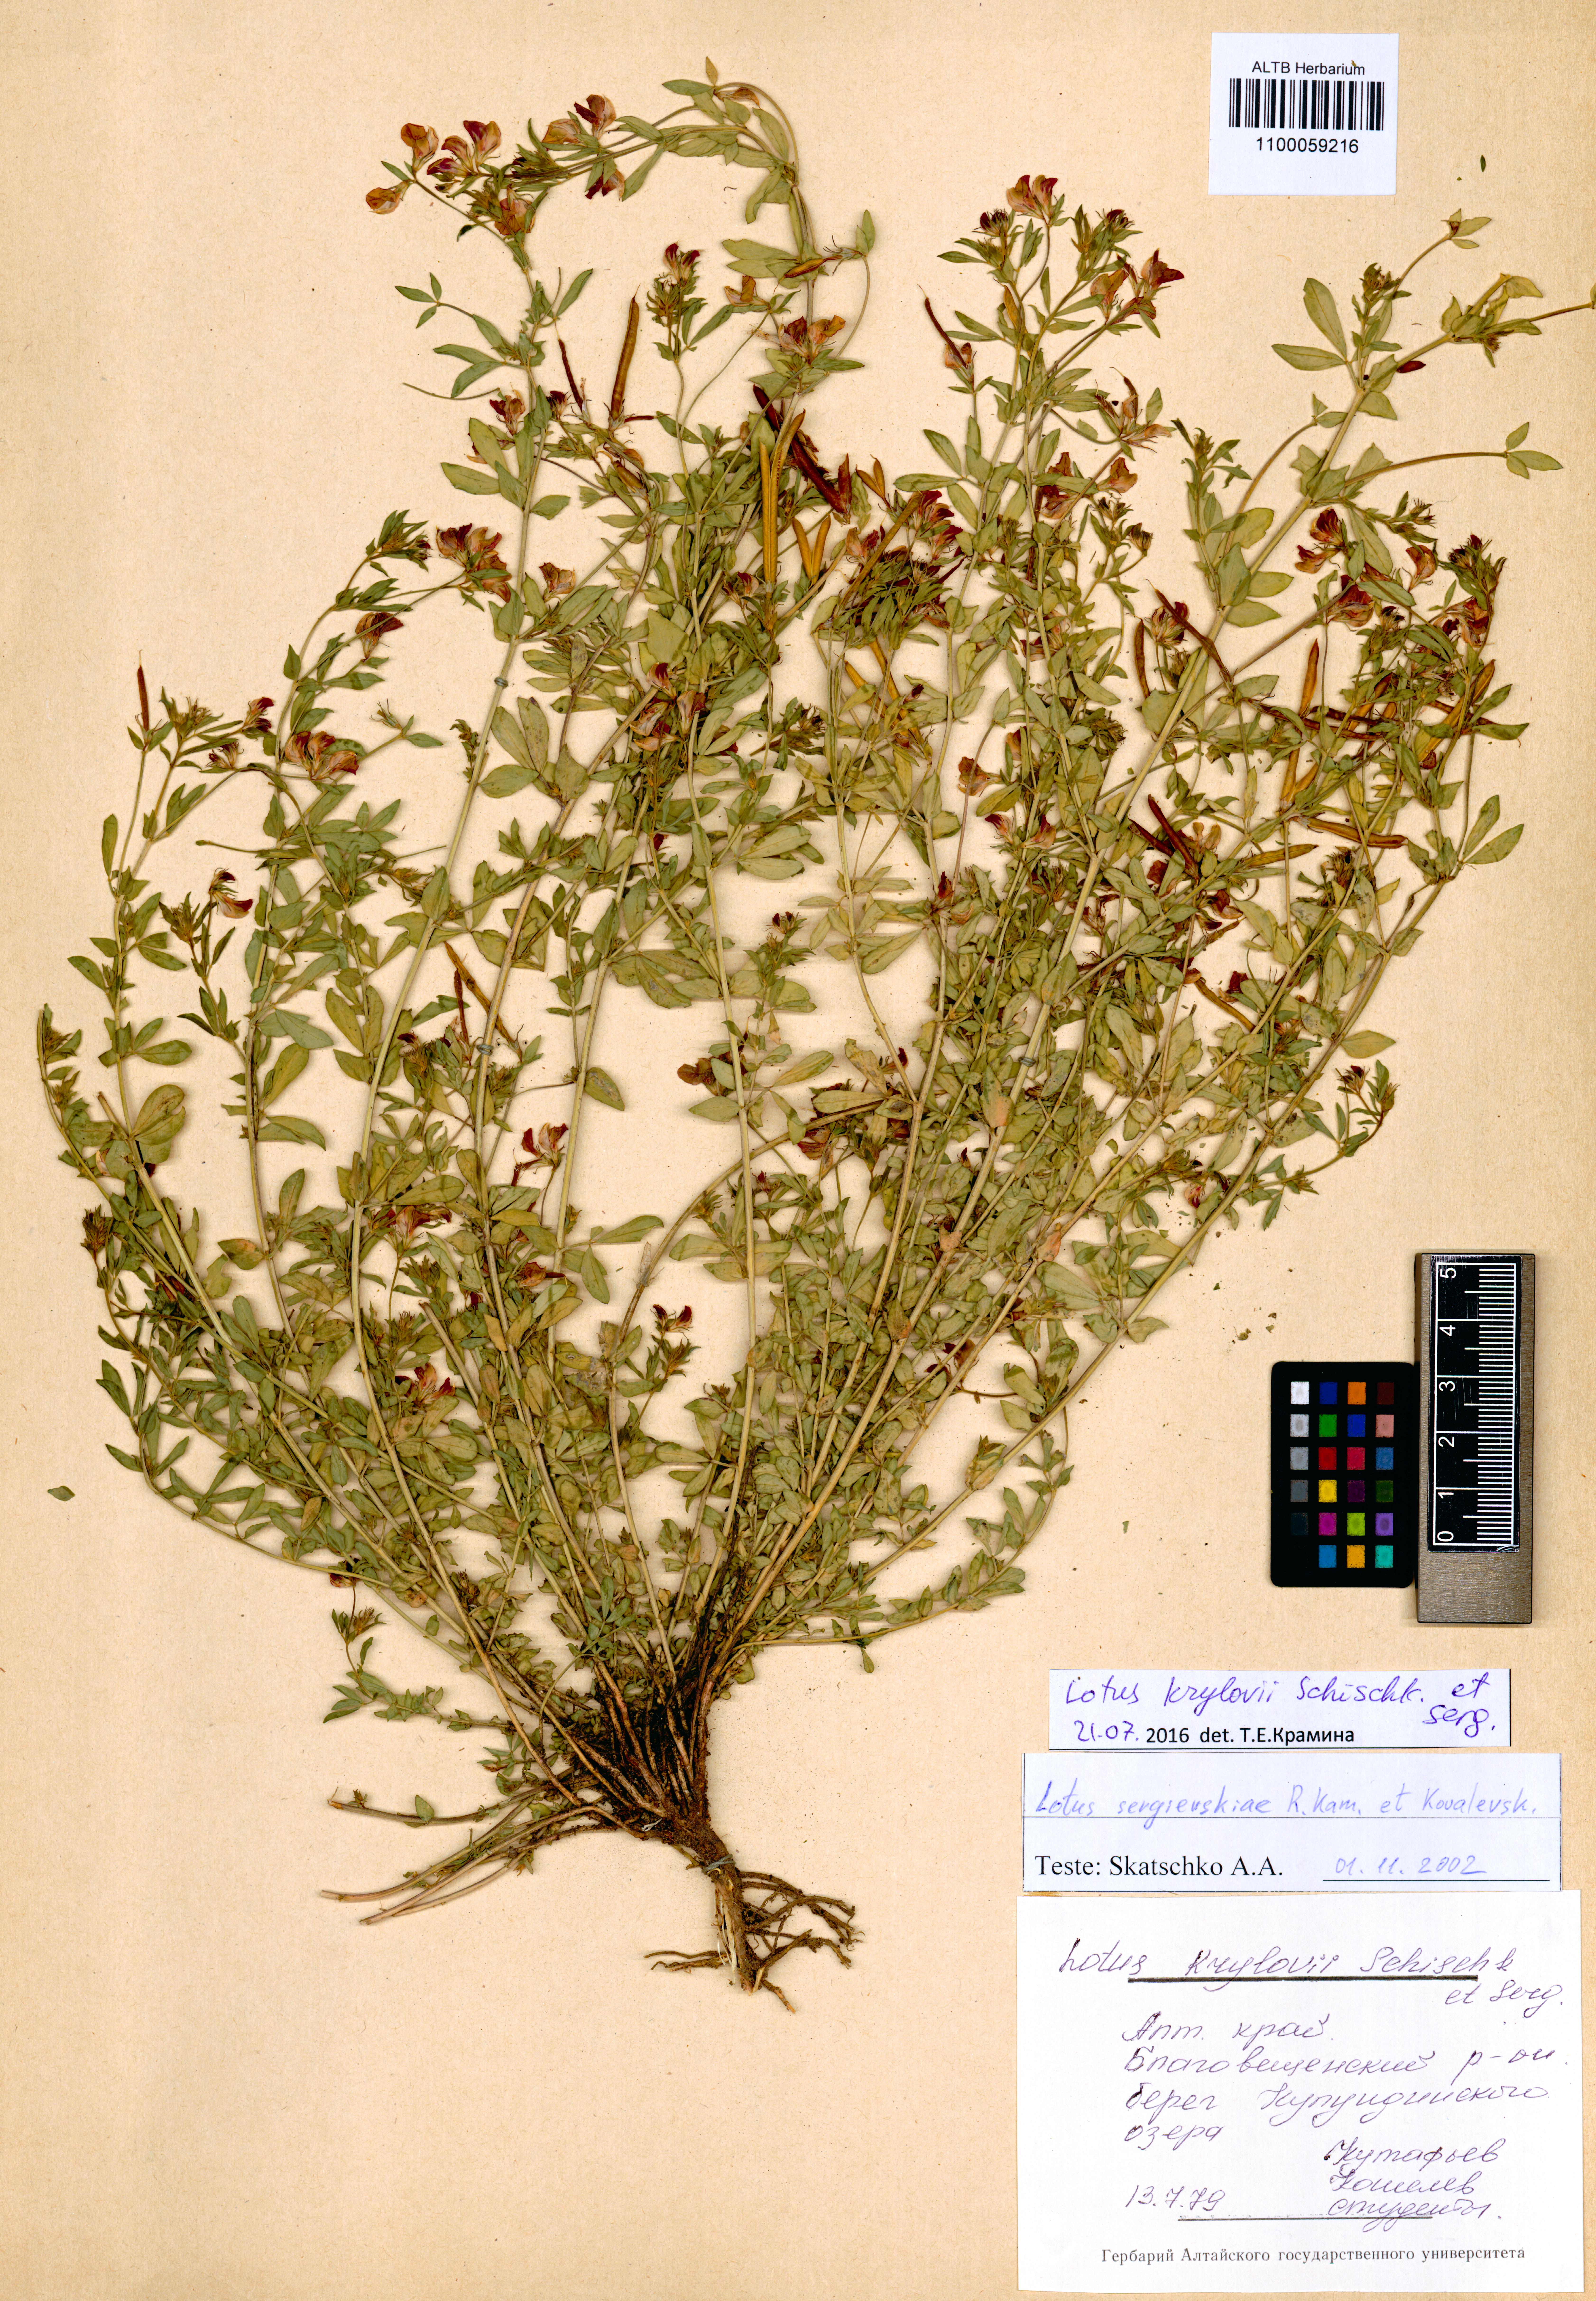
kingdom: Plantae
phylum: Tracheophyta
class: Magnoliopsida
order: Fabales
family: Fabaceae
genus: Lotus
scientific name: Lotus krylovii
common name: Krylov's bird's-foot trefoil
